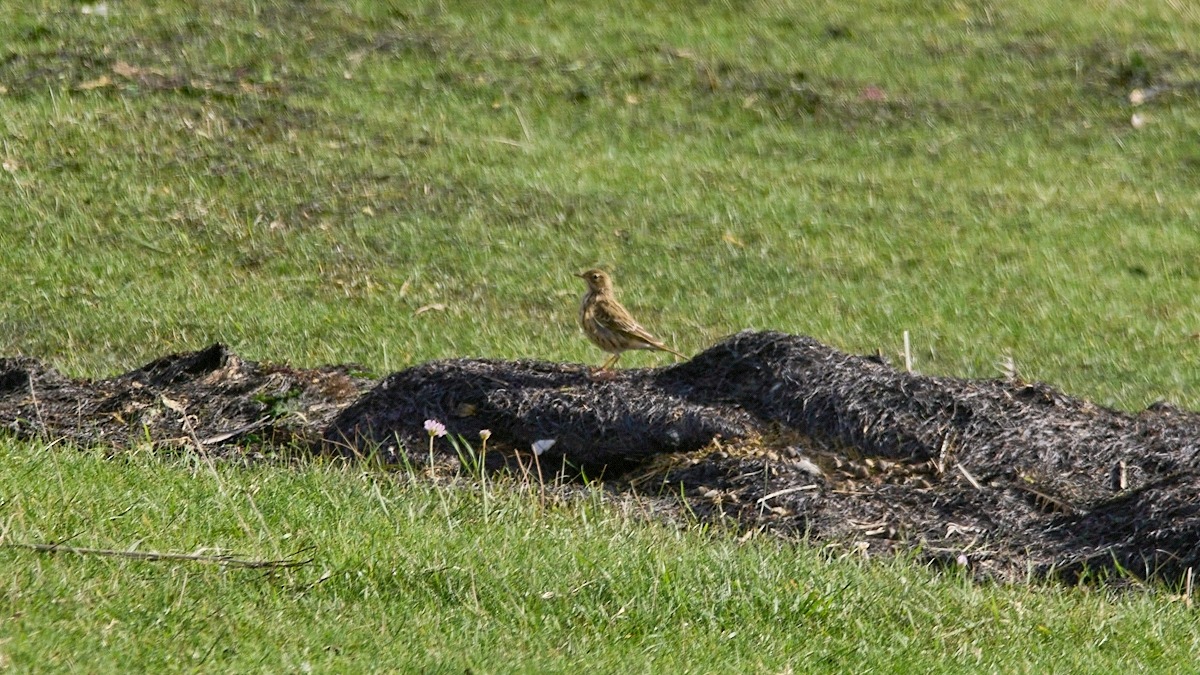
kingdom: Animalia
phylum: Chordata
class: Aves
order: Passeriformes
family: Motacillidae
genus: Anthus
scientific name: Anthus pratensis
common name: Engpiber
